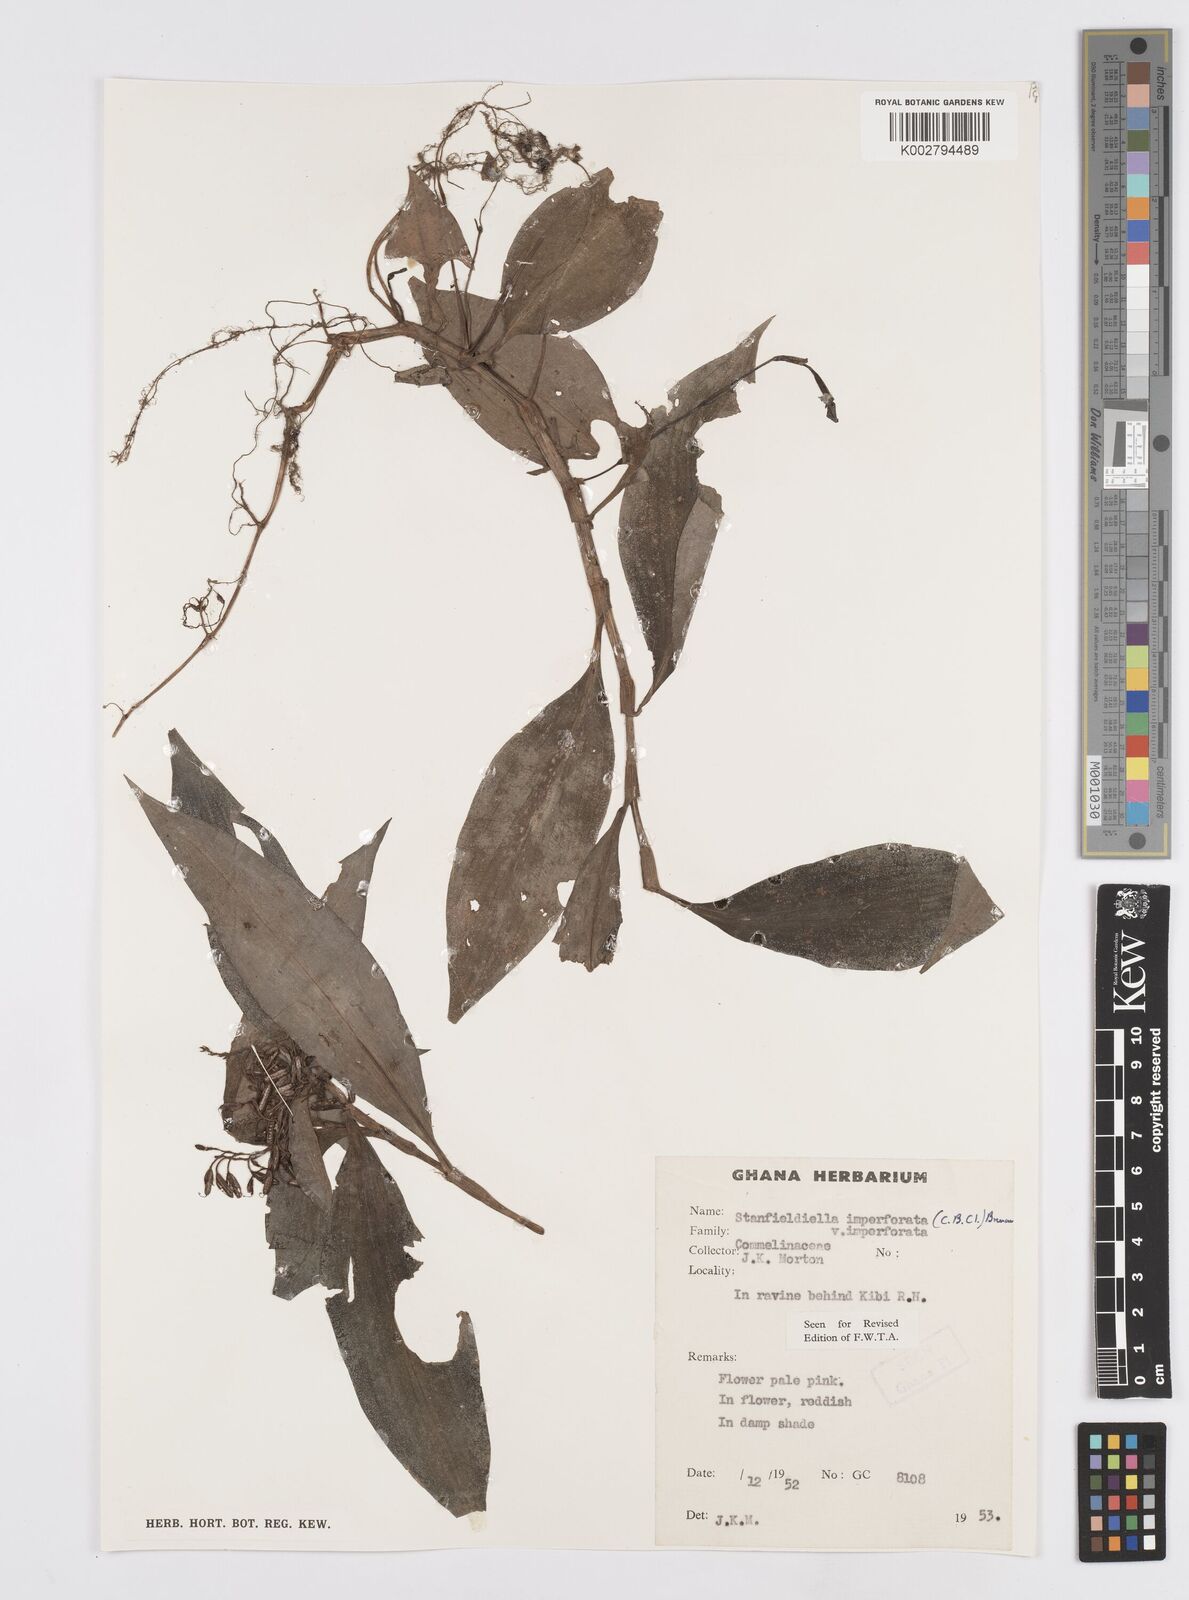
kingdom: Plantae
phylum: Tracheophyta
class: Liliopsida
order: Commelinales
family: Commelinaceae
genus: Stanfieldiella
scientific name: Stanfieldiella imperforata
